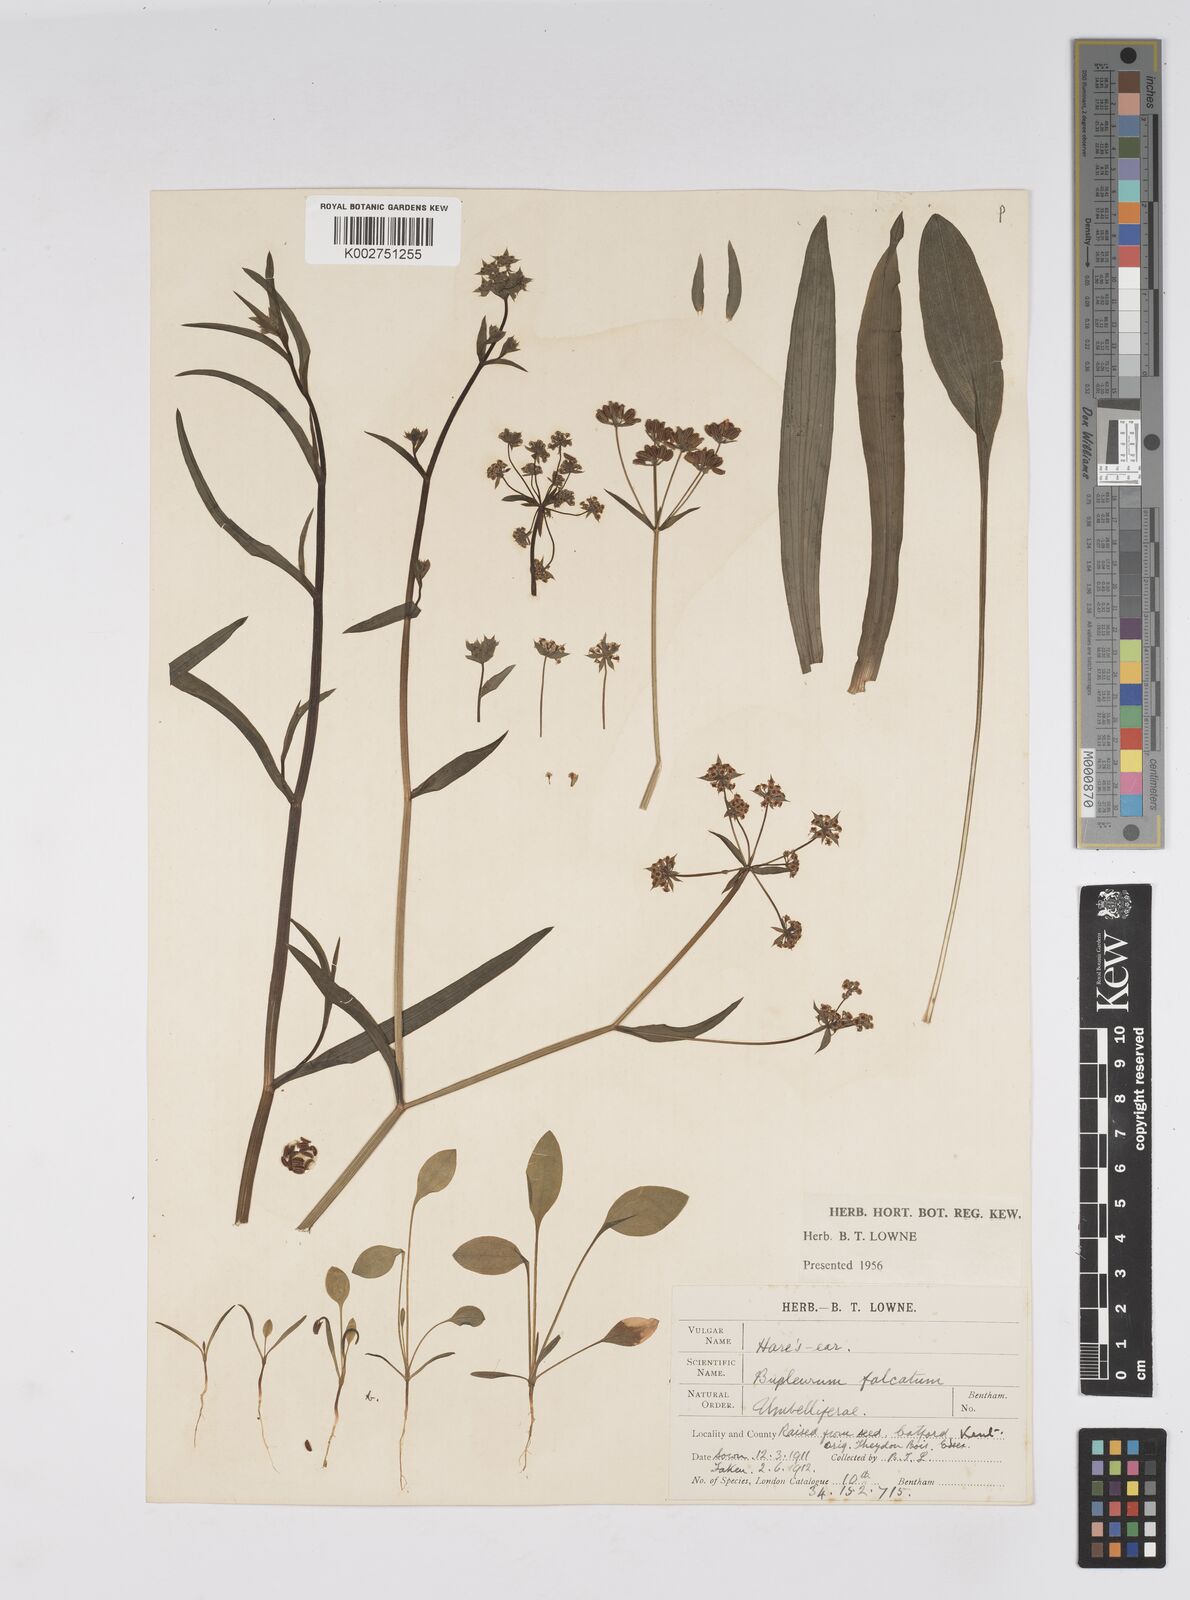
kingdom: Plantae
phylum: Tracheophyta
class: Magnoliopsida
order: Apiales
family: Apiaceae
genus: Bupleurum
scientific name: Bupleurum falcatum
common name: Sickle-leaved hare's-ear
